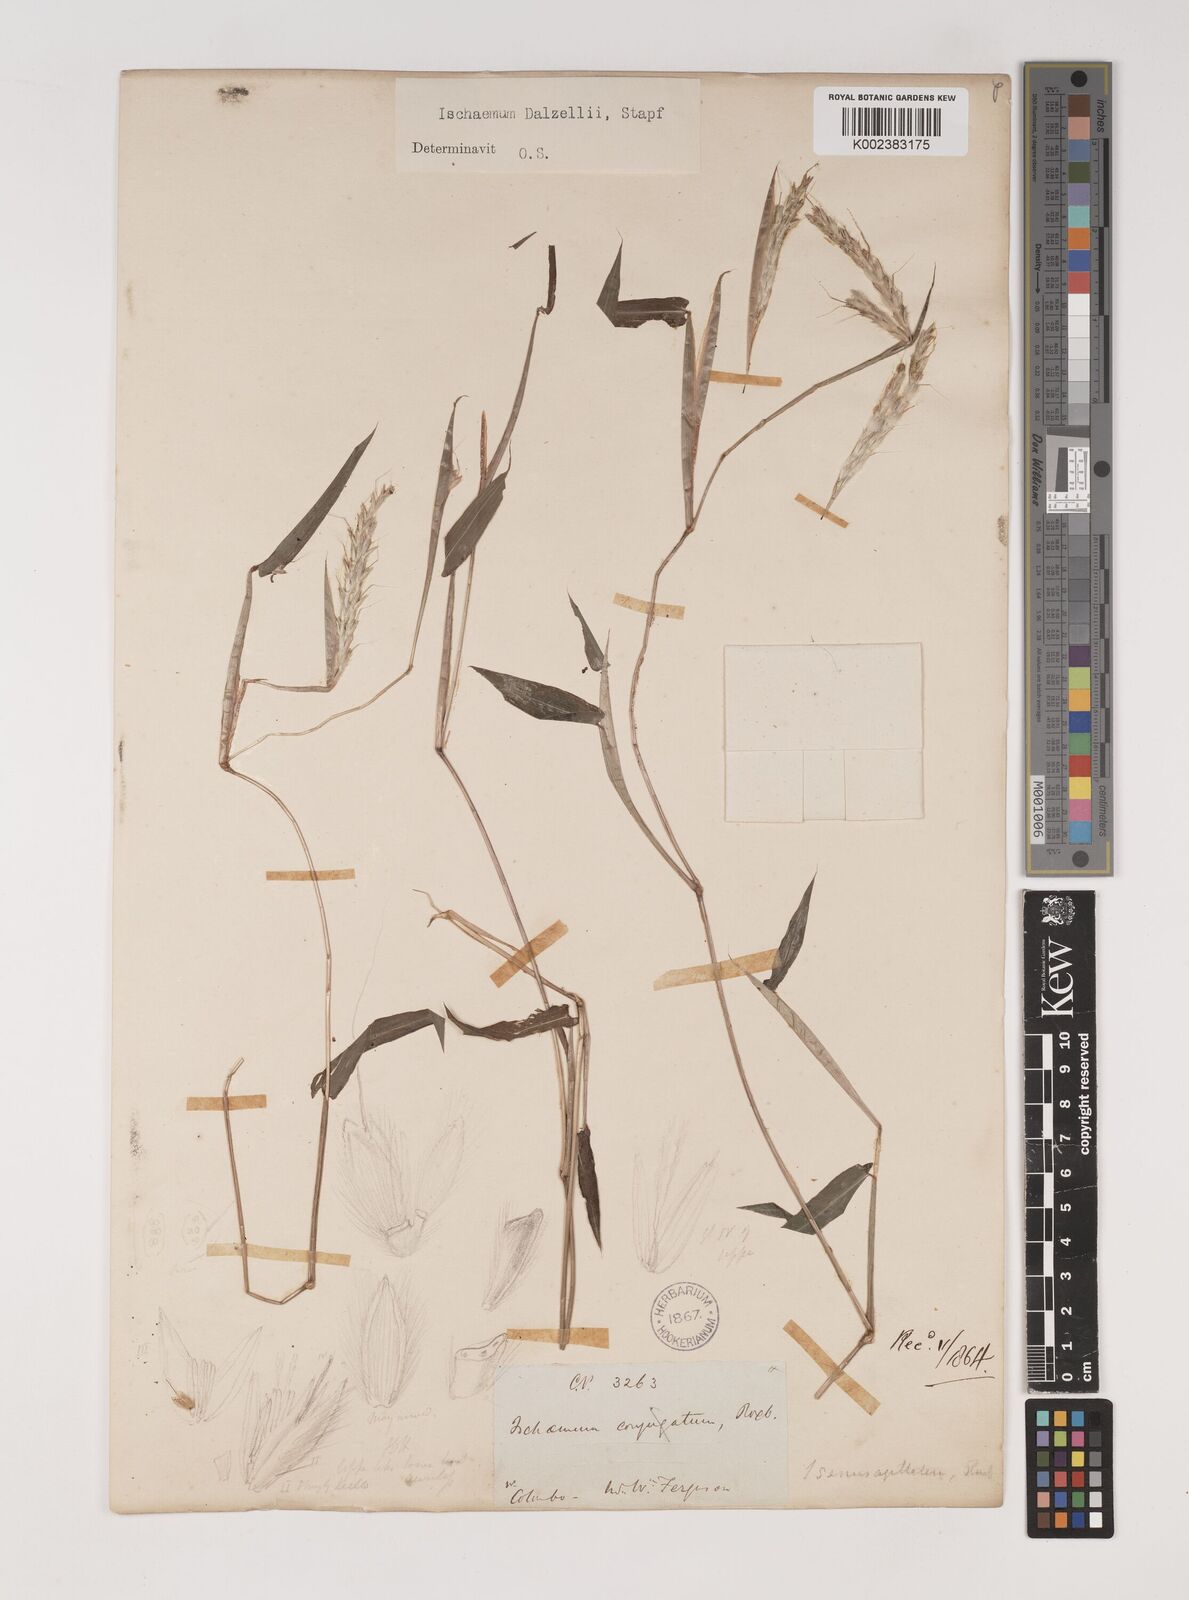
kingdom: Plantae
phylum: Tracheophyta
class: Liliopsida
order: Poales
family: Poaceae
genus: Ischaemum
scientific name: Ischaemum dalzellii
